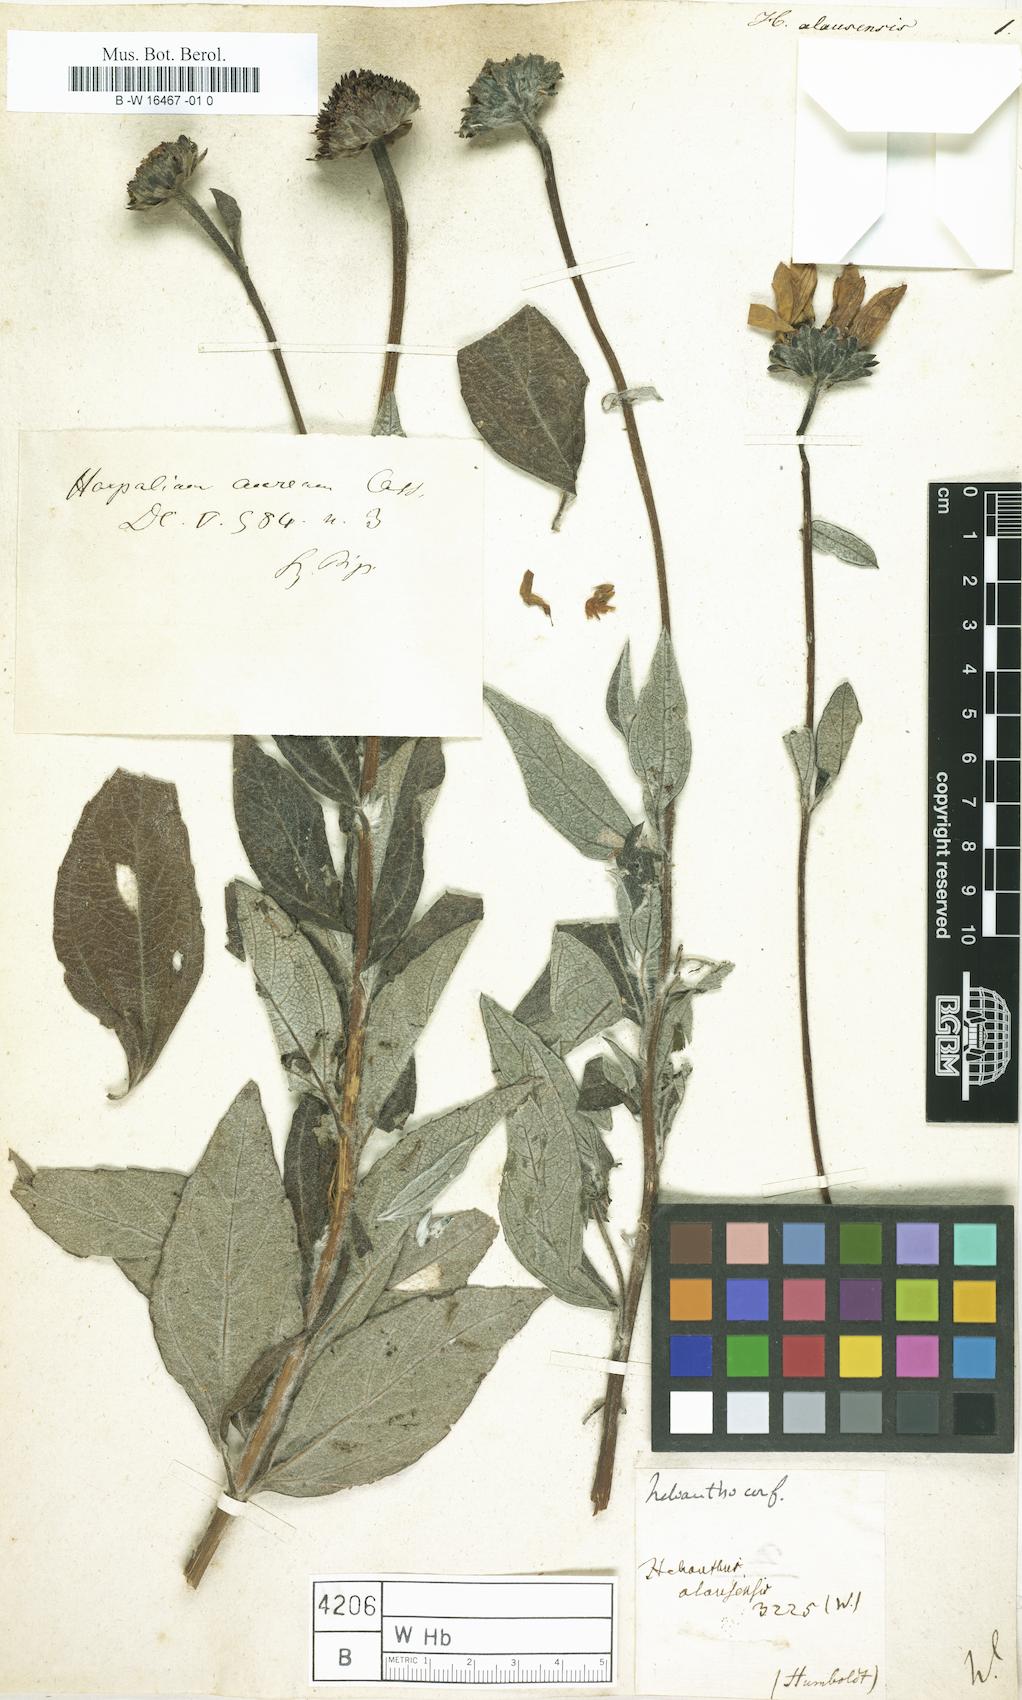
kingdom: Plantae
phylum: Tracheophyta
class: Magnoliopsida
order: Asterales
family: Asteraceae
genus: Helianthus
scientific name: Helianthus
